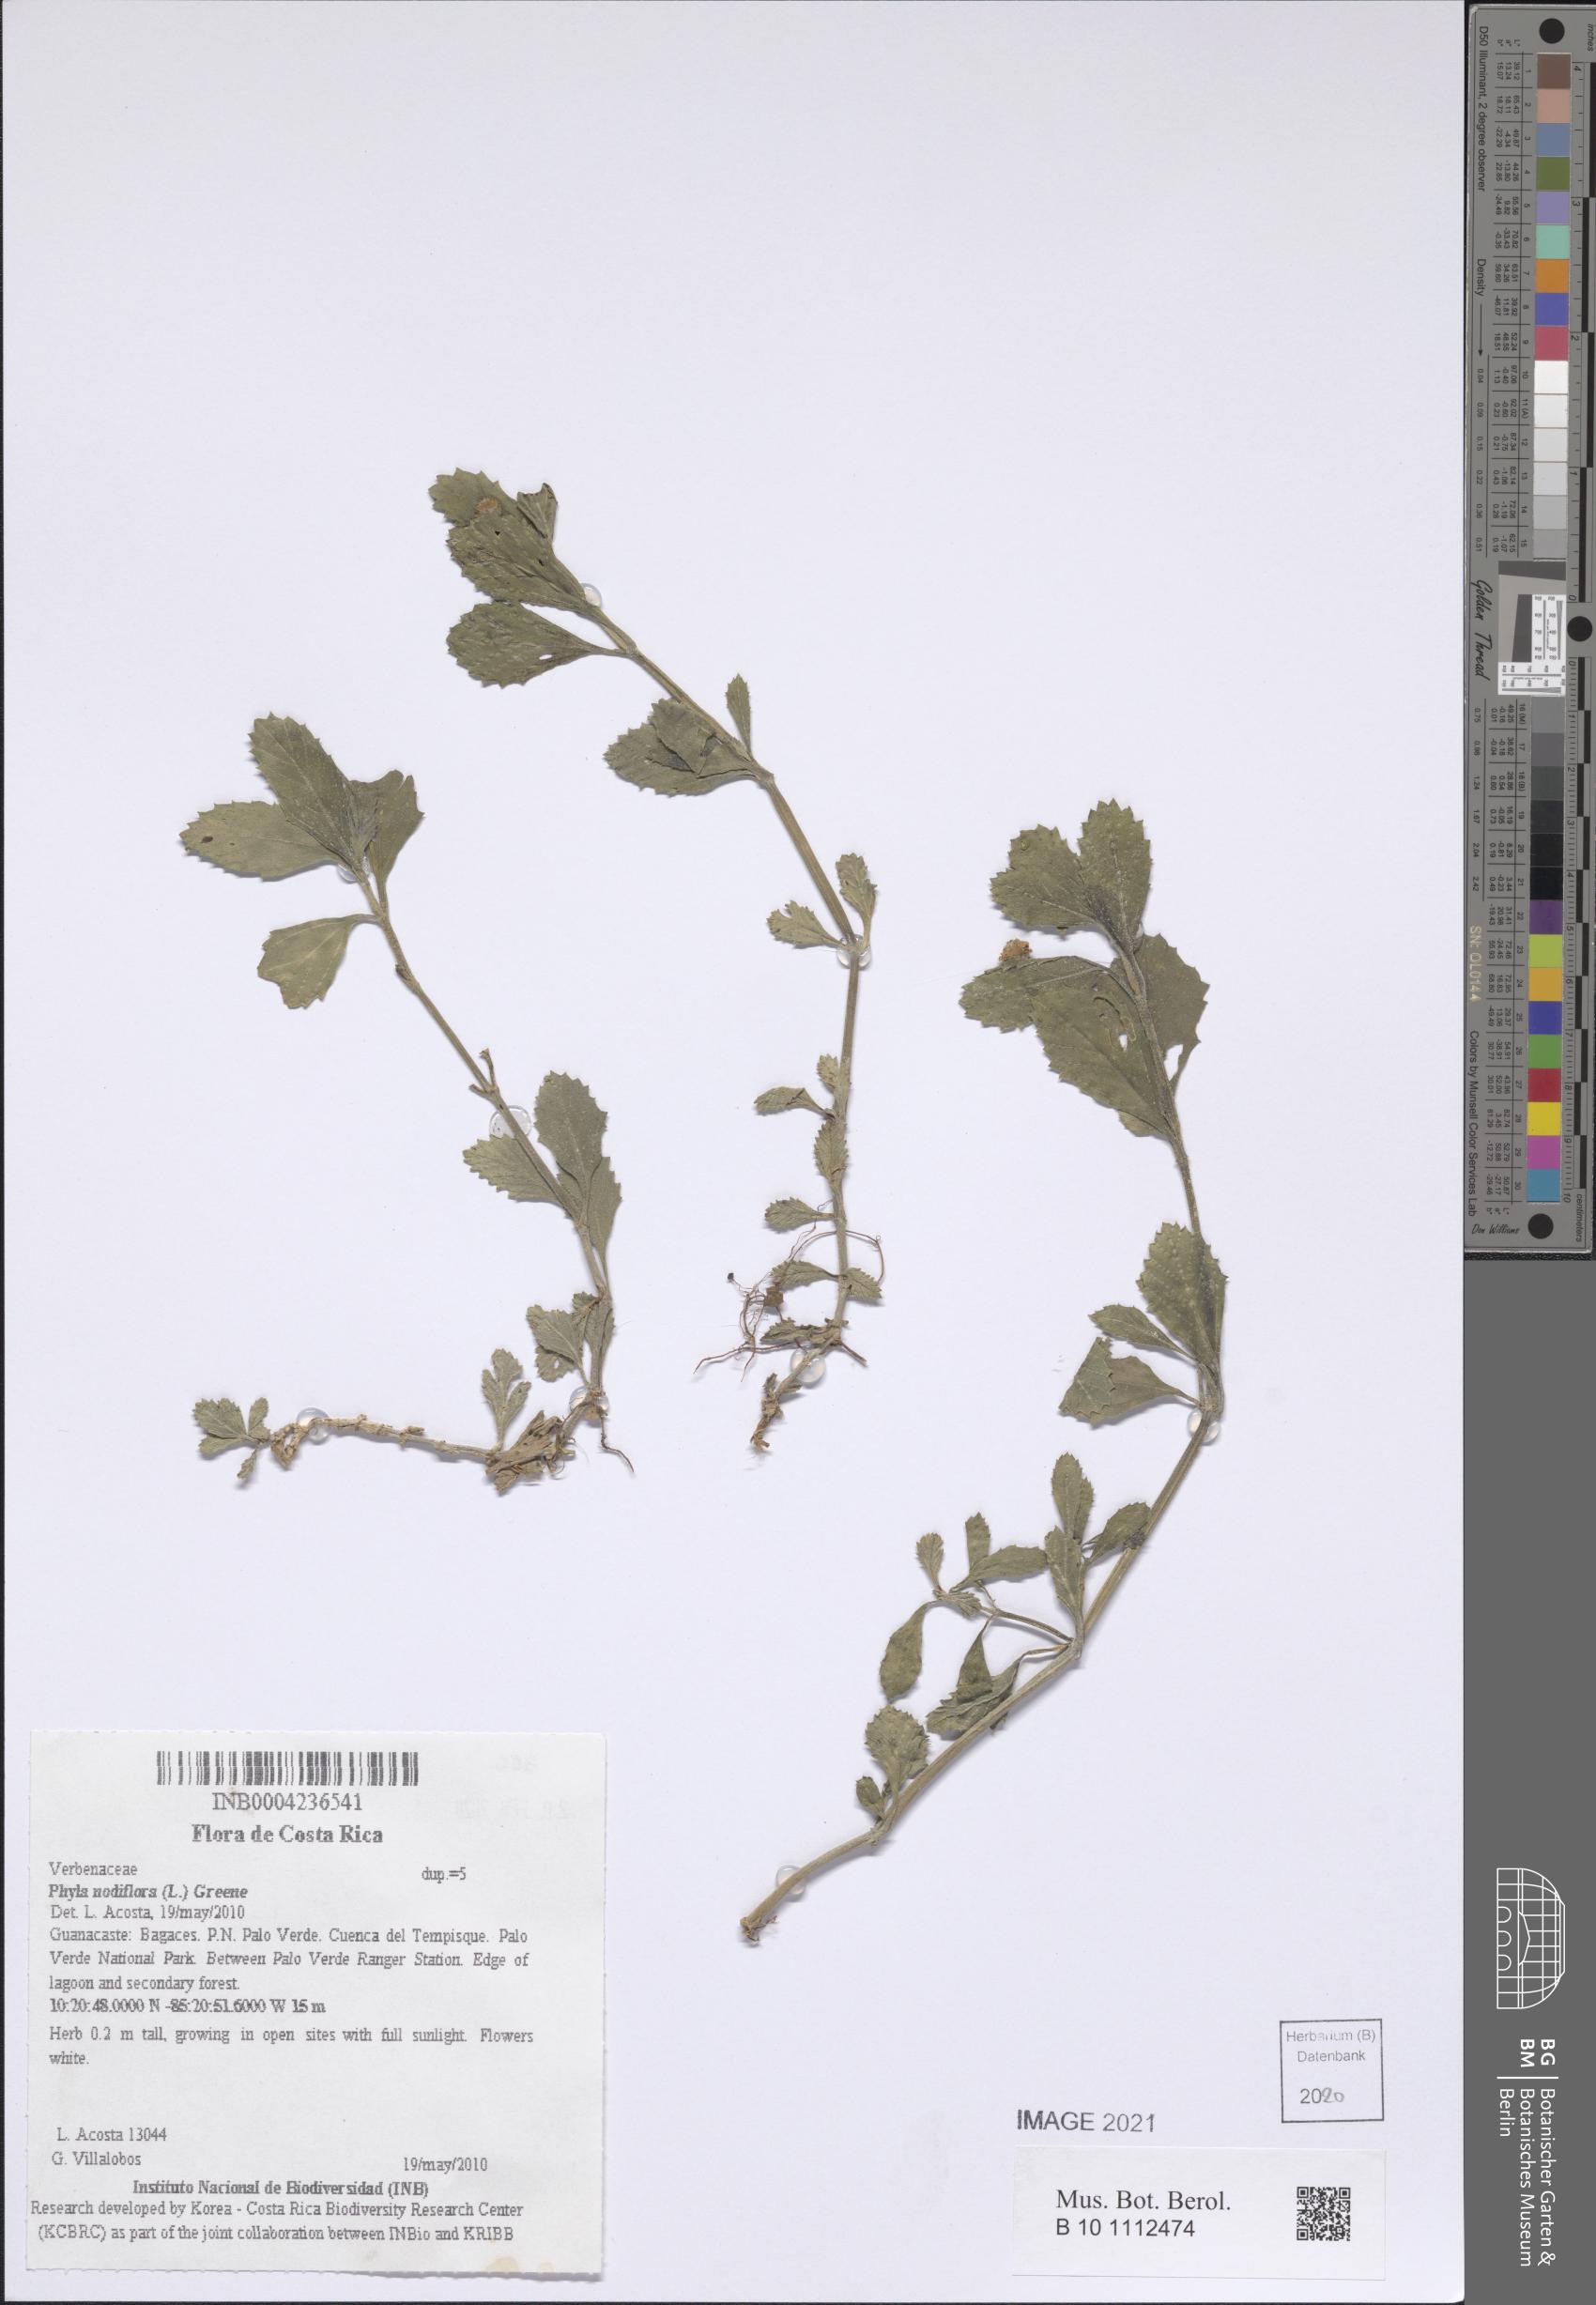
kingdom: Plantae
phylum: Tracheophyta
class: Magnoliopsida
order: Lamiales
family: Verbenaceae
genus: Phyla
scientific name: Phyla nodiflora
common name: Frogfruit
